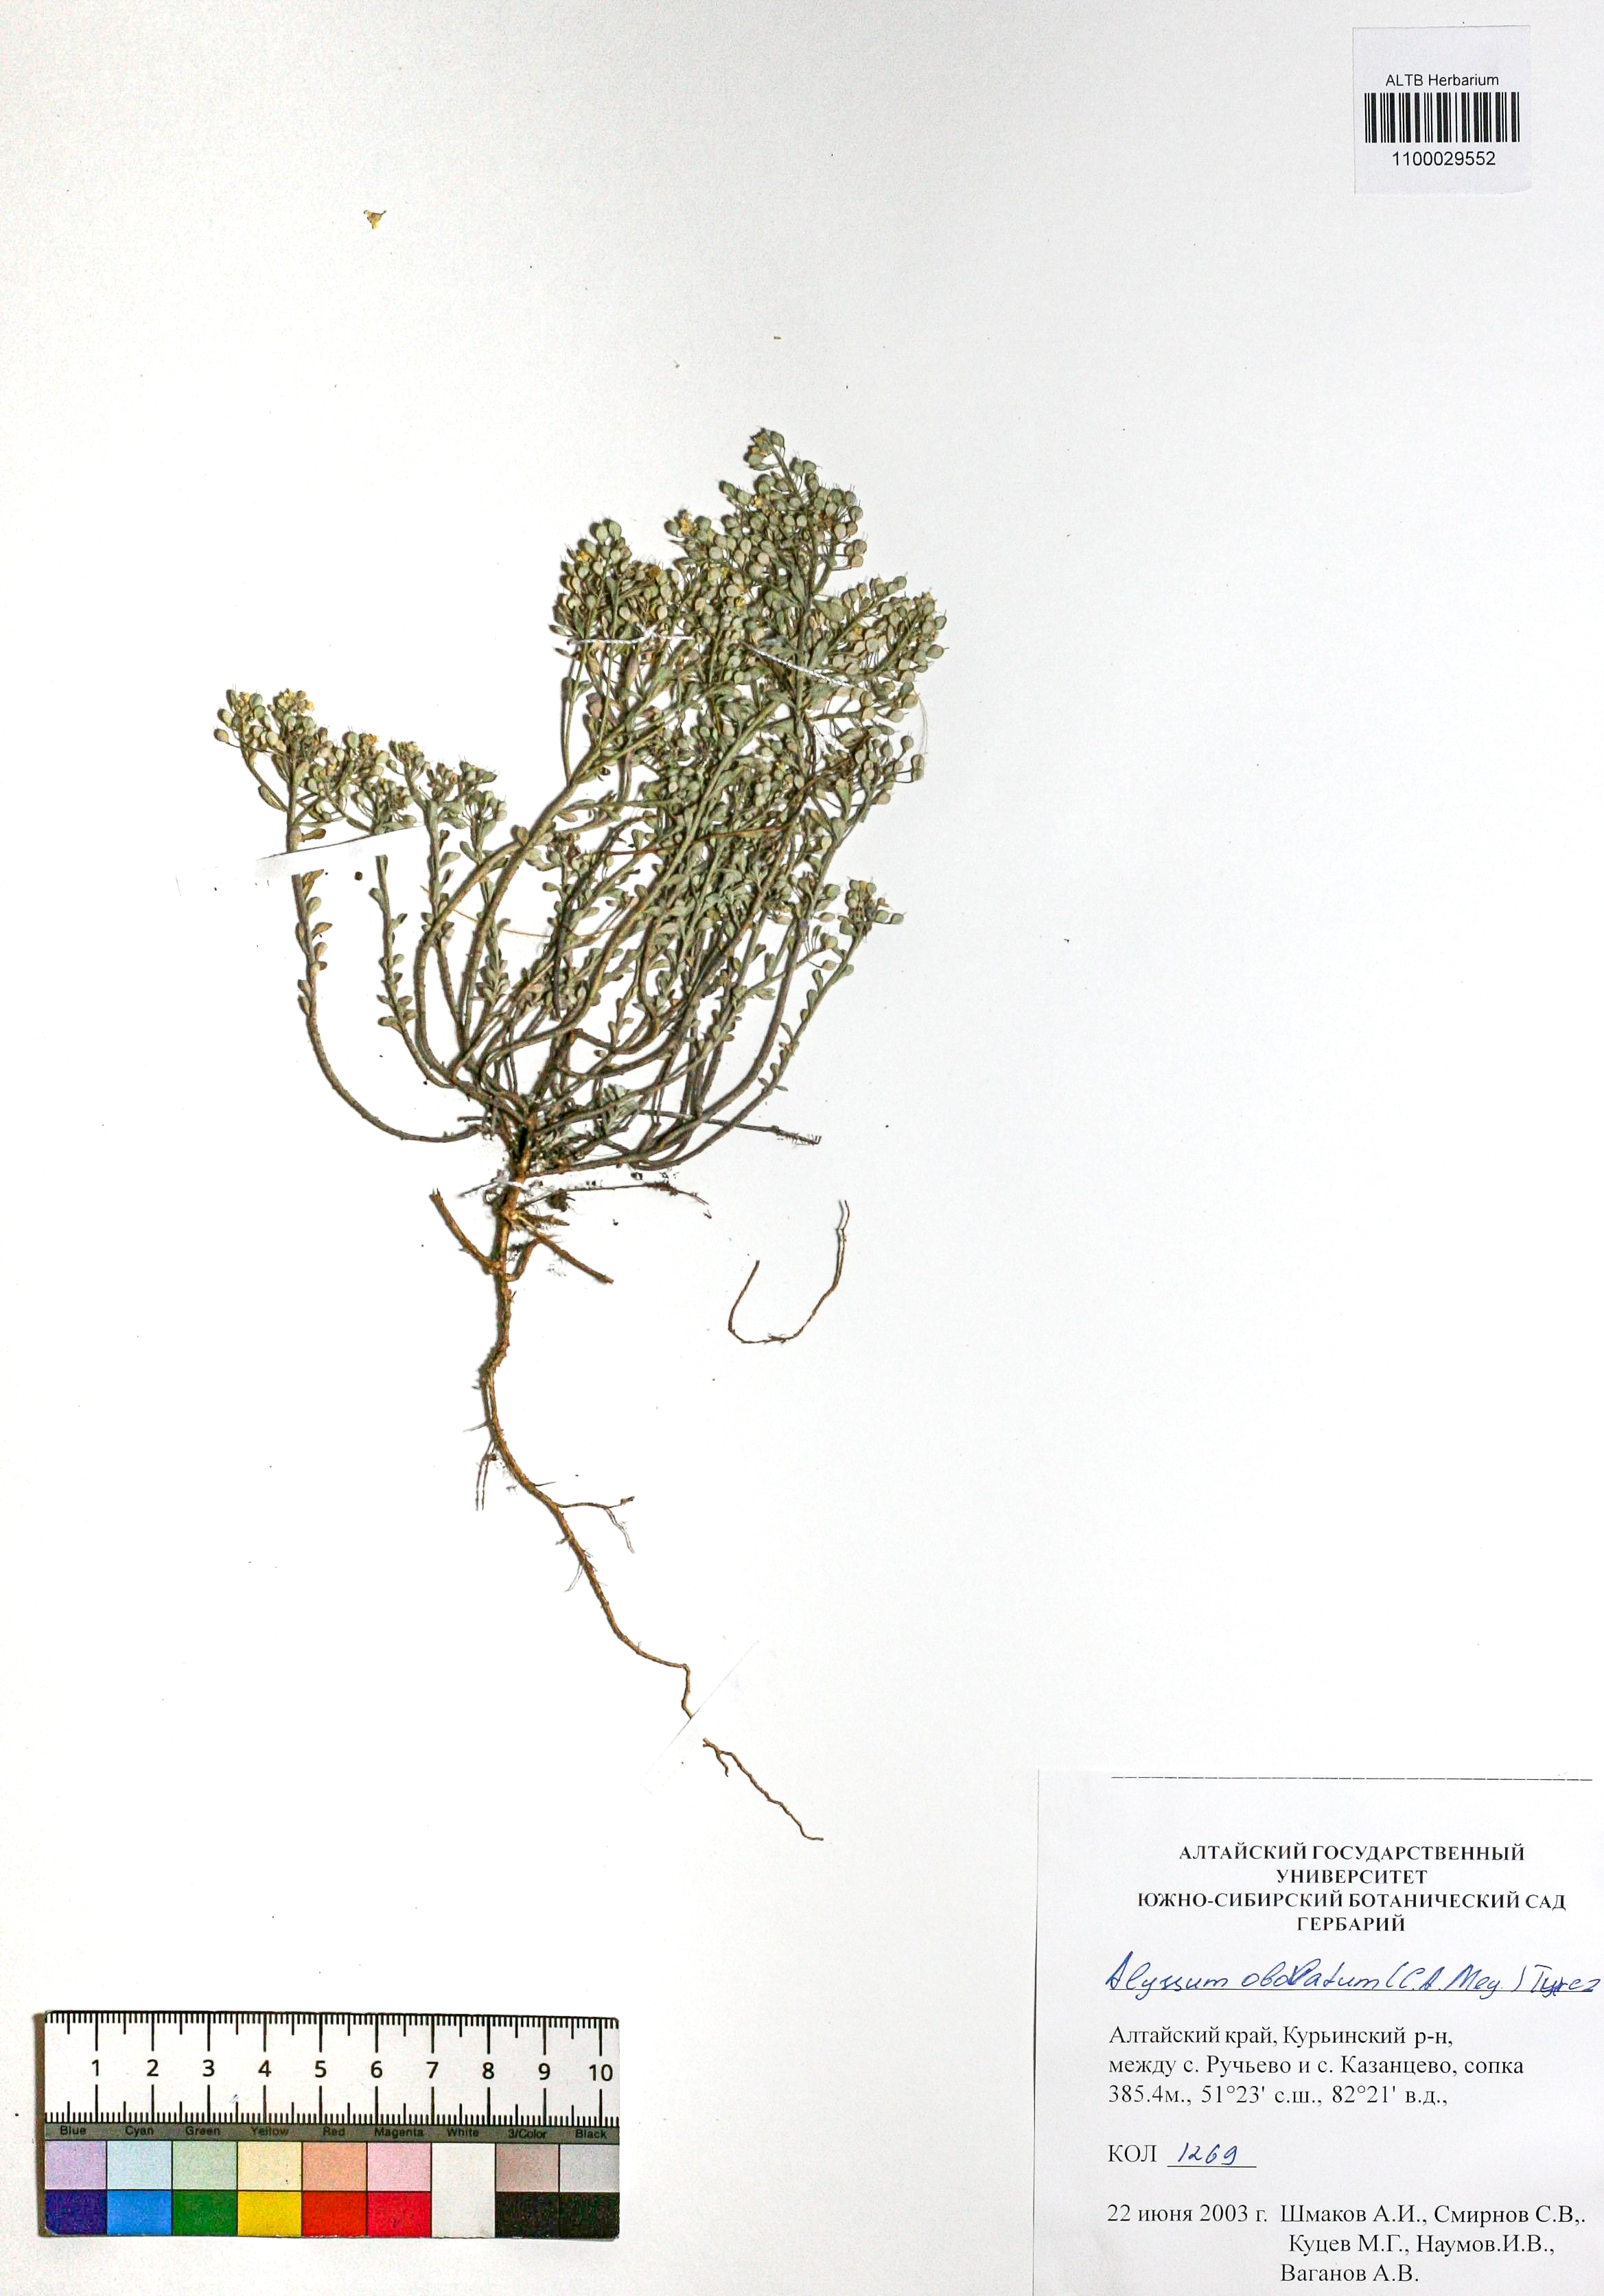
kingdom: Plantae
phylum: Tracheophyta
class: Magnoliopsida
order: Brassicales
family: Brassicaceae
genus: Odontarrhena
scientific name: Odontarrhena obovata
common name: American alyssum
